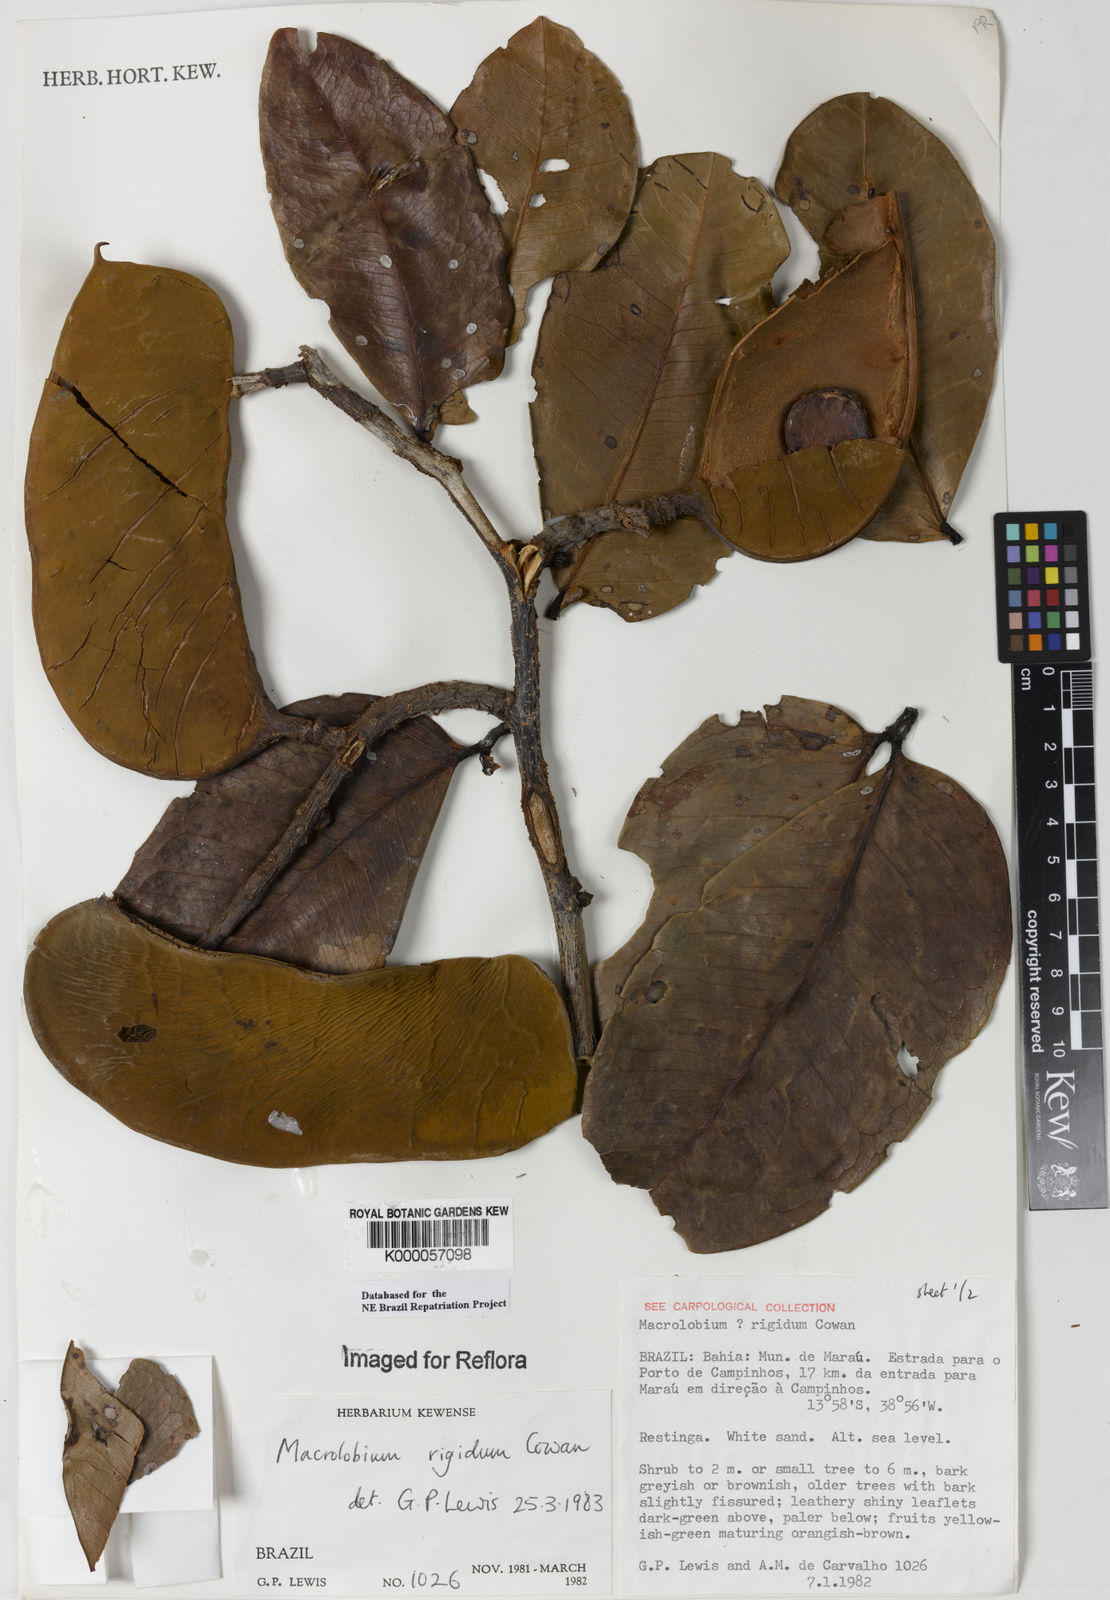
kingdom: Plantae
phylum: Tracheophyta
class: Magnoliopsida
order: Fabales
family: Fabaceae
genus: Macrolobium
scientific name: Macrolobium rigidum
